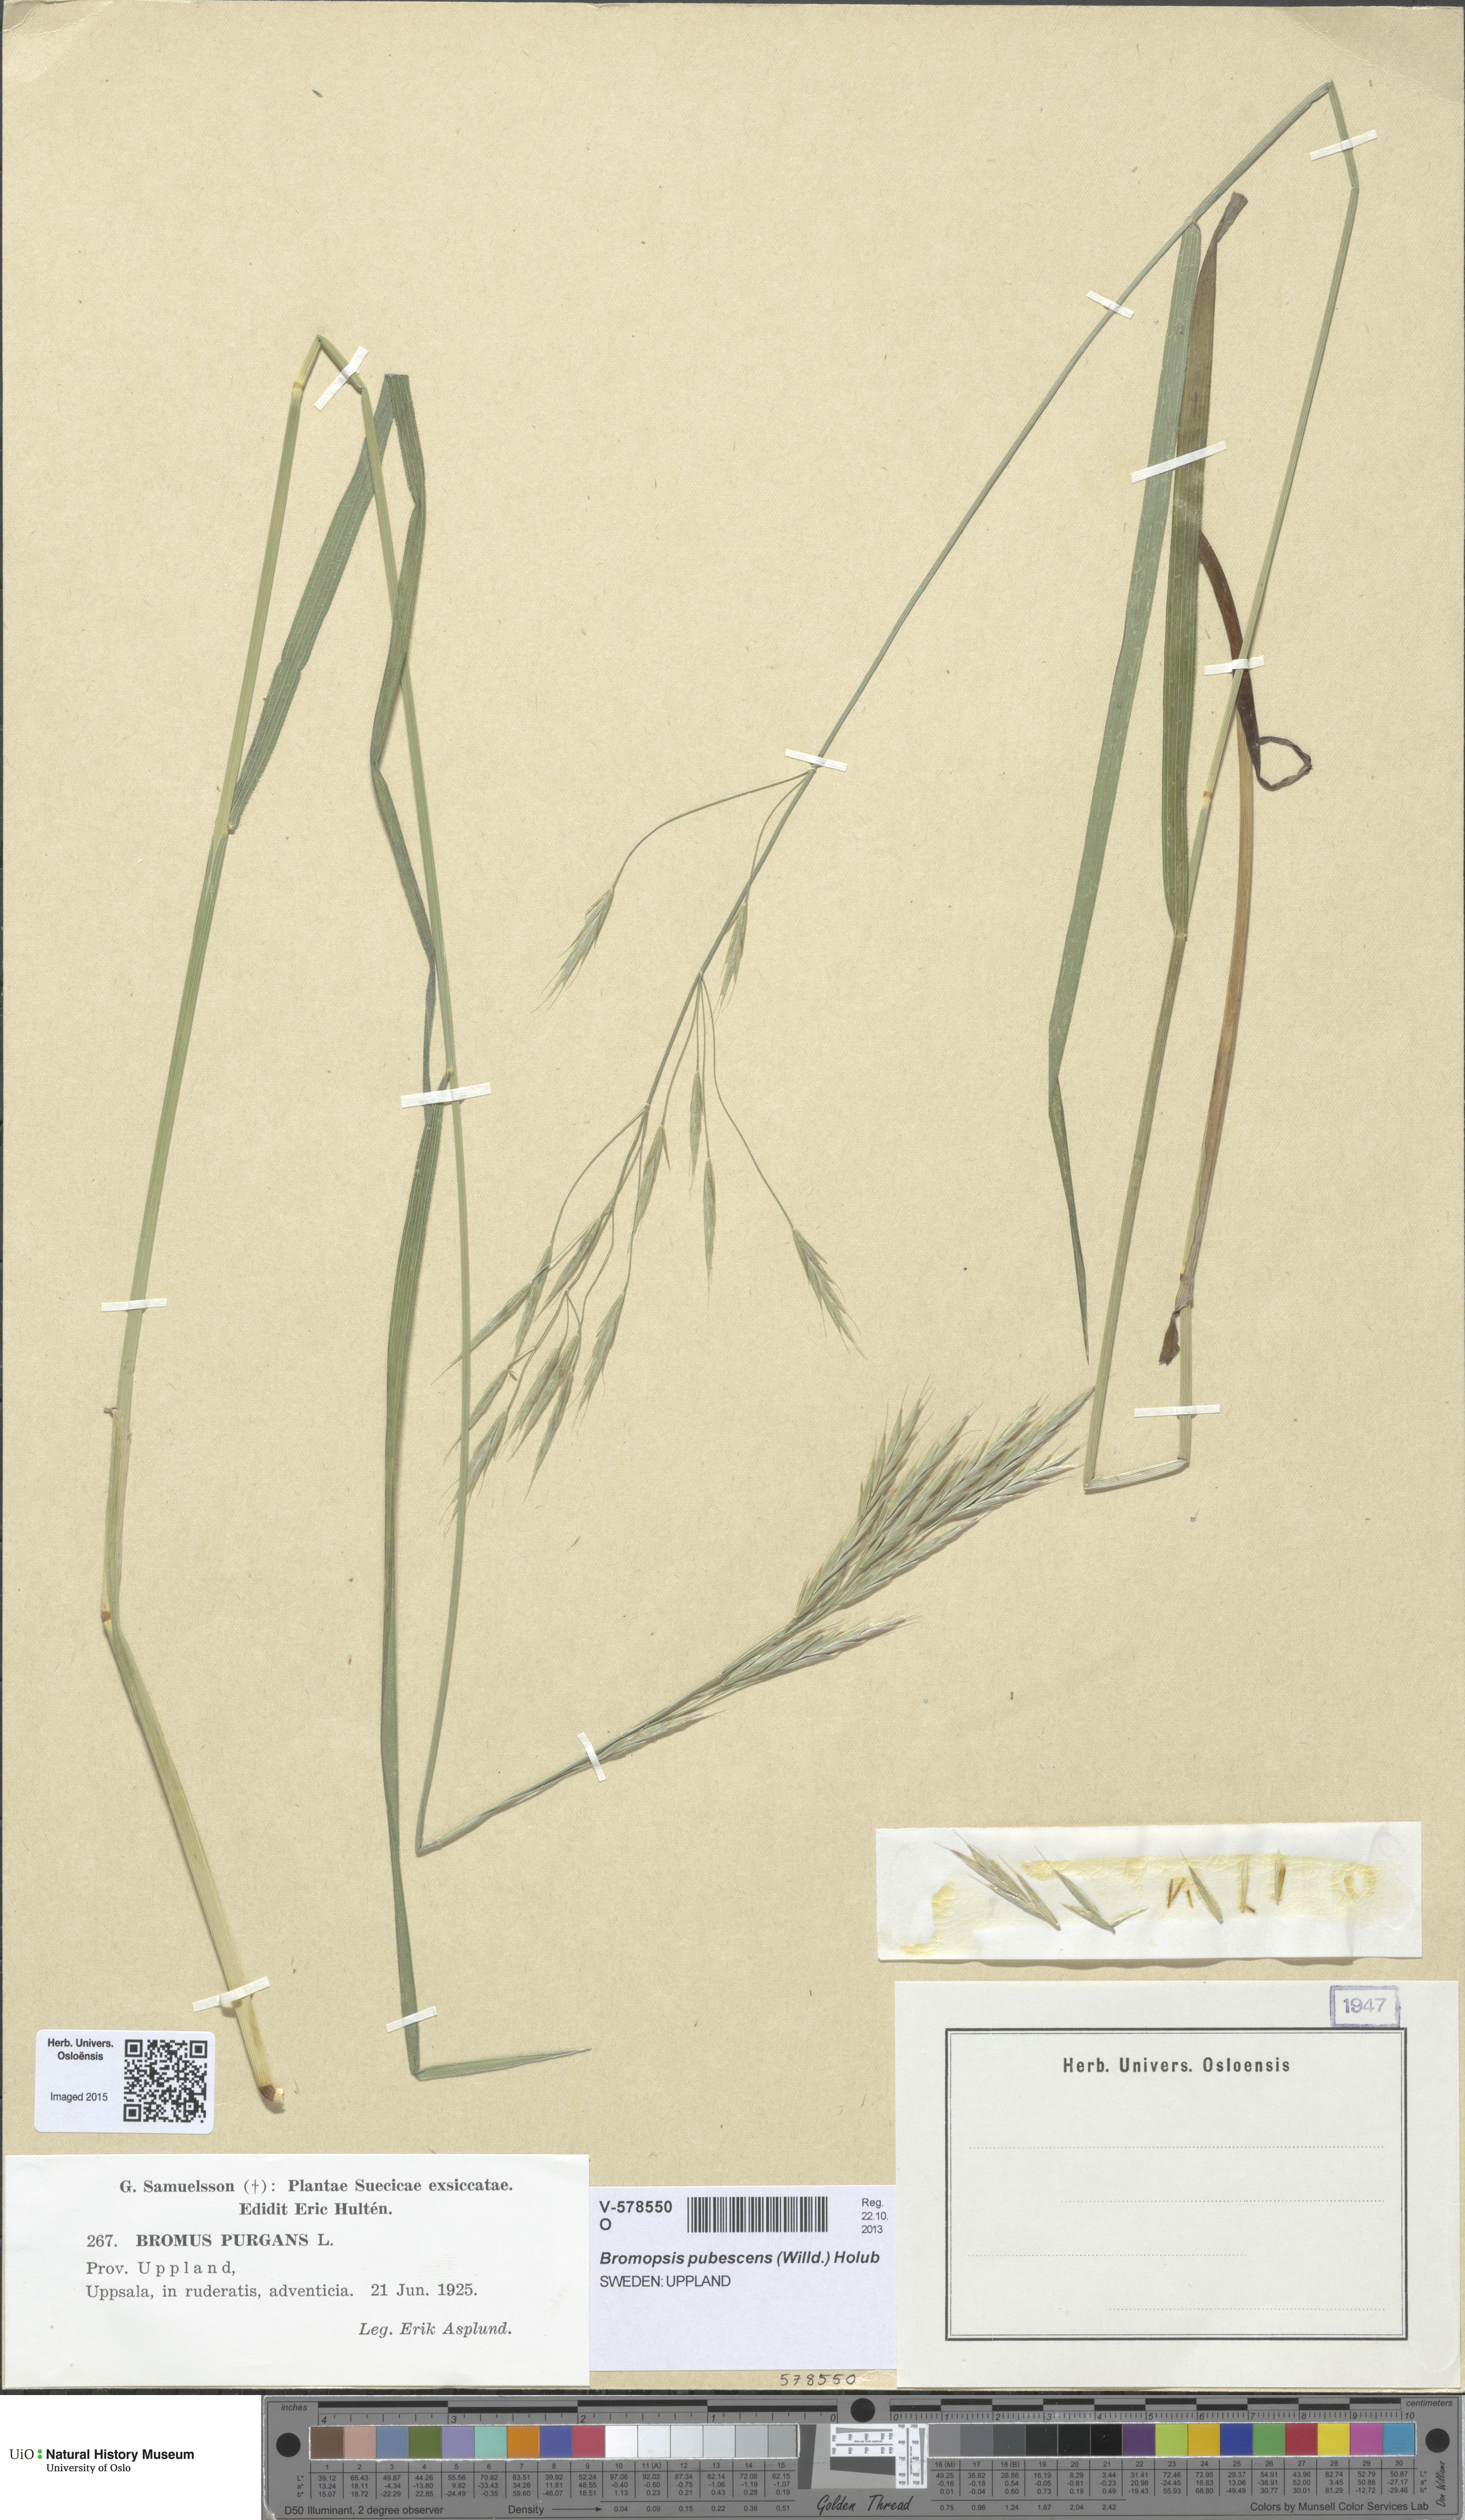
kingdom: Plantae
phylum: Tracheophyta
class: Liliopsida
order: Poales
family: Poaceae
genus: Bromus
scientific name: Bromus pubescens
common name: Hairy wood brome grass
